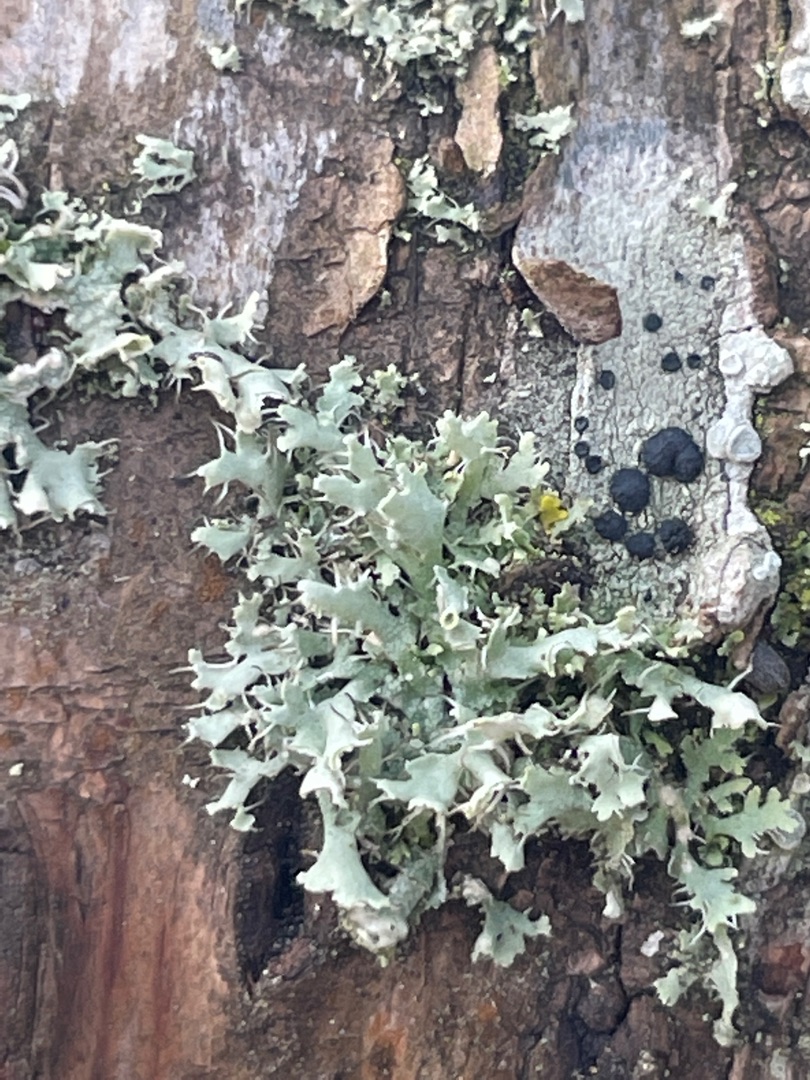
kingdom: Fungi
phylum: Ascomycota
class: Lecanoromycetes
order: Caliciales
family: Physciaceae
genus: Physcia
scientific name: Physcia adscendens
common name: Hætte-rosetlav
